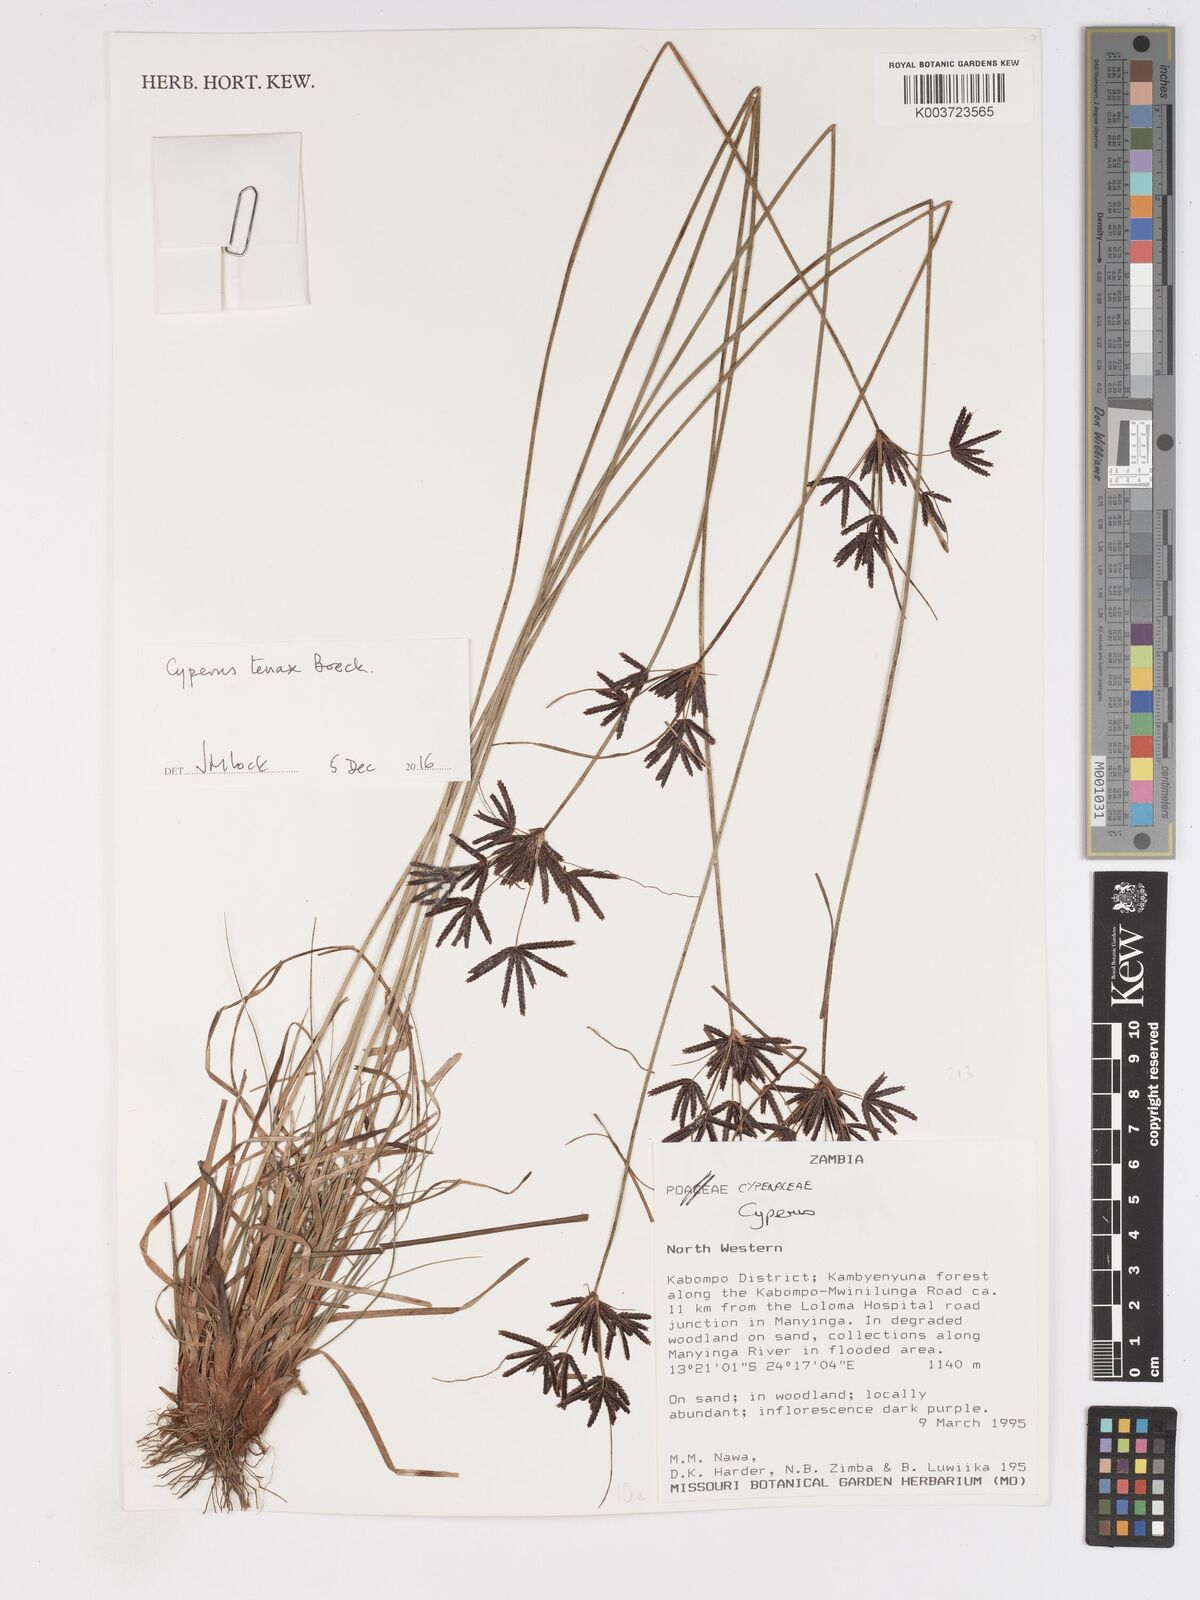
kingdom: Plantae
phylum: Tracheophyta
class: Liliopsida
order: Poales
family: Cyperaceae
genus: Cyperus
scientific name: Cyperus tenax
